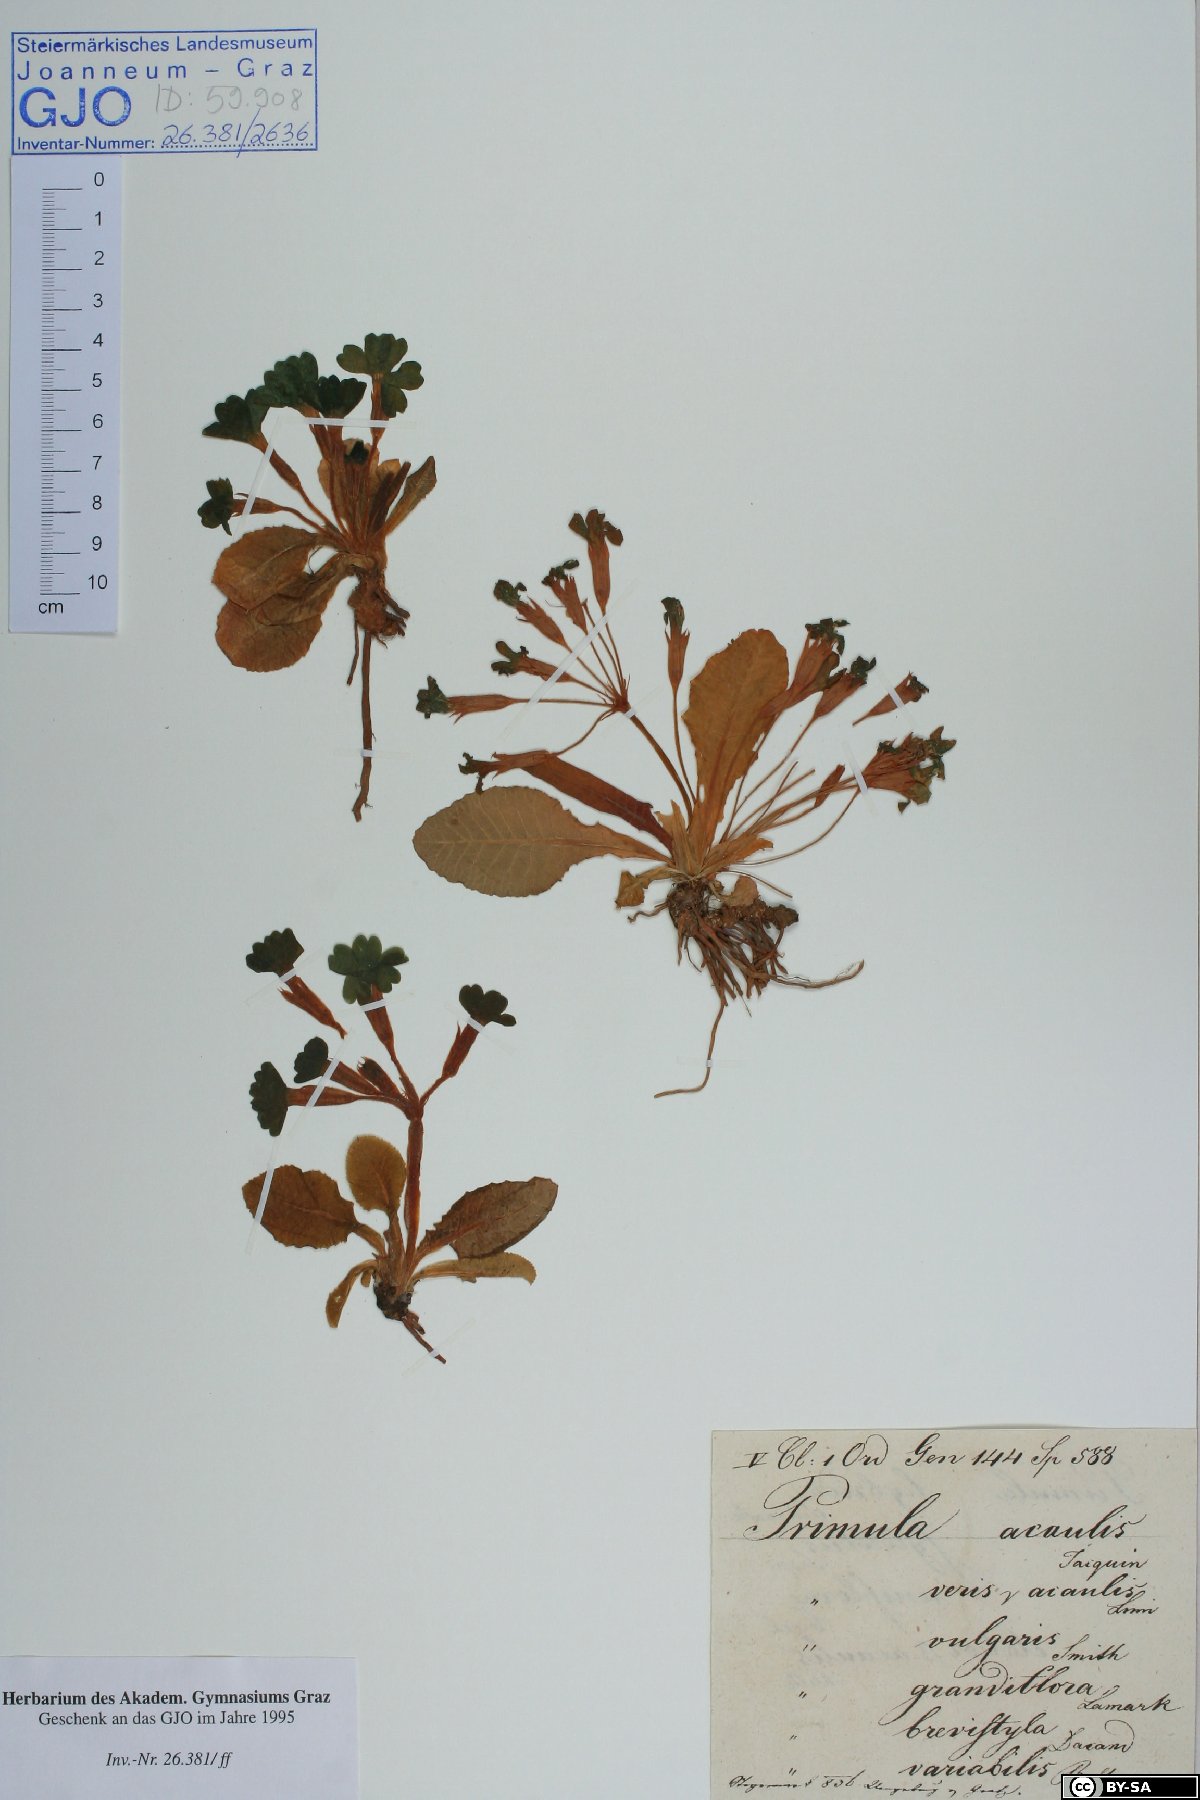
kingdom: Plantae
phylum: Tracheophyta
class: Magnoliopsida
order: Ericales
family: Primulaceae
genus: Primula
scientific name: Primula vulgaris
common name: Primrose
